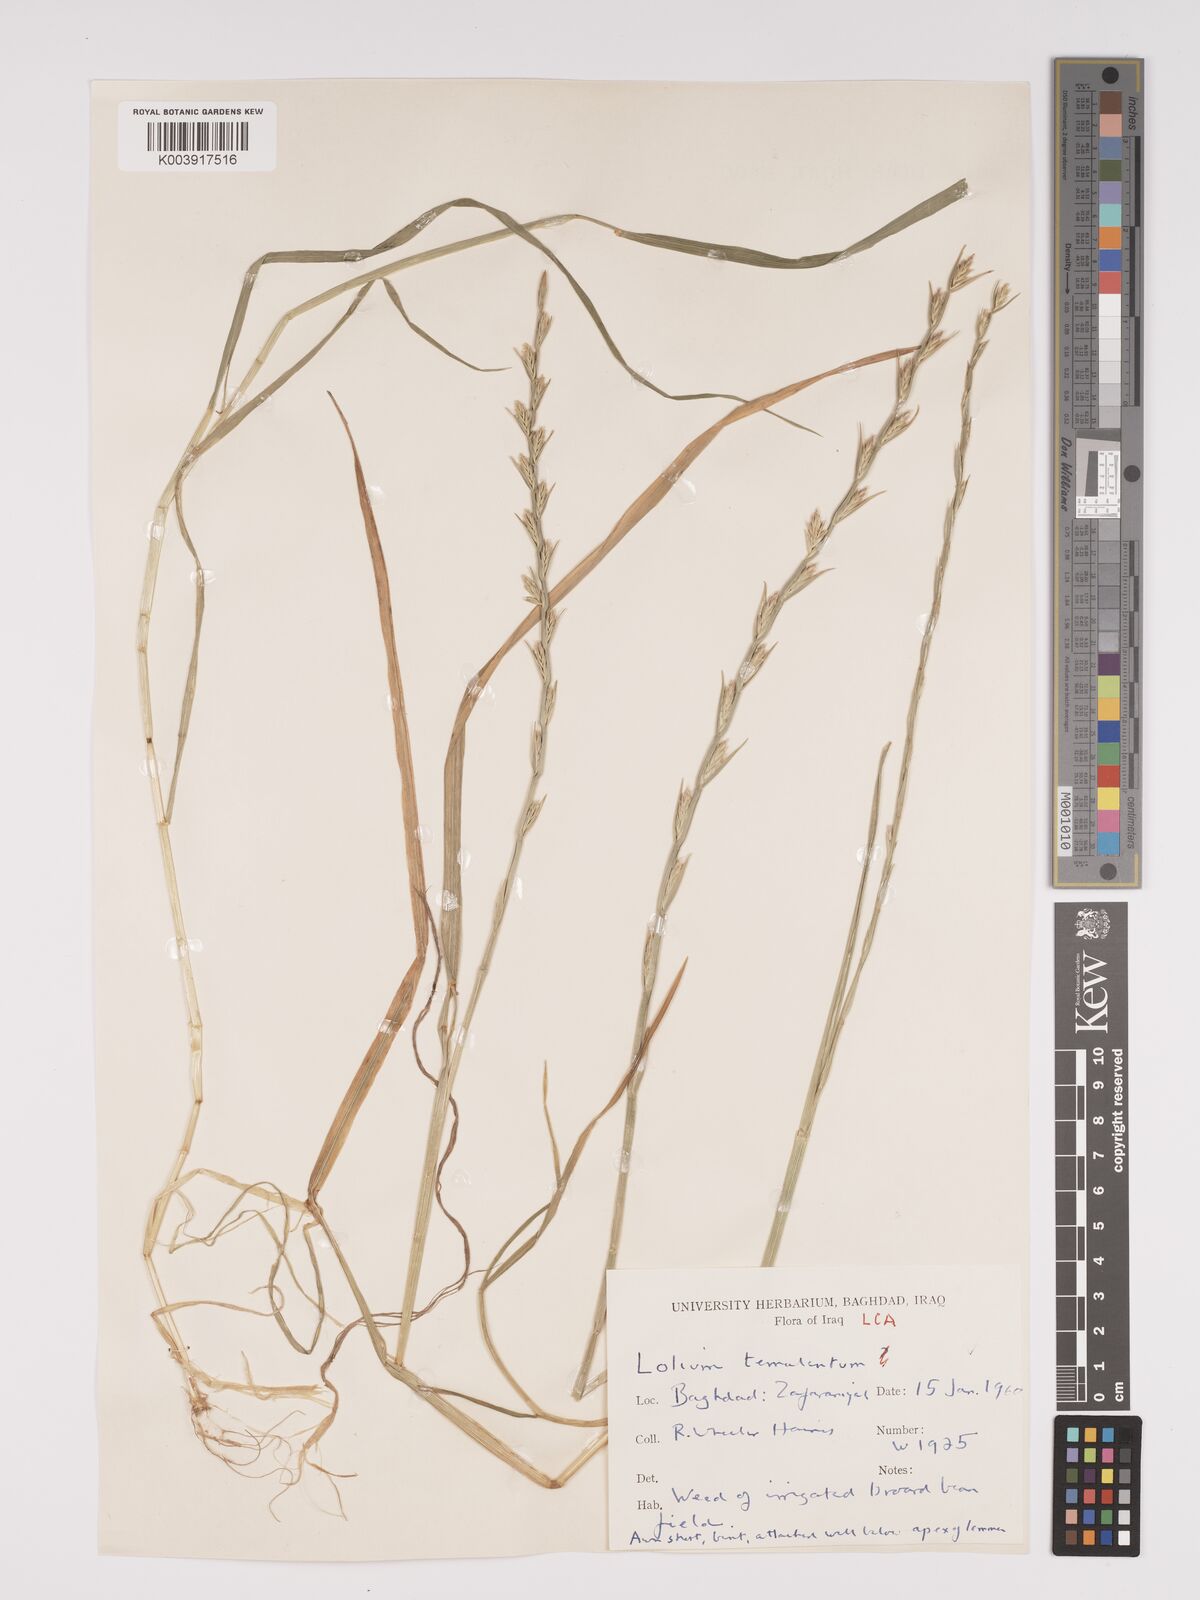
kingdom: Plantae
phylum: Tracheophyta
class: Liliopsida
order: Poales
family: Poaceae
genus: Lolium
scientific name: Lolium temulentum
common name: Darnel
